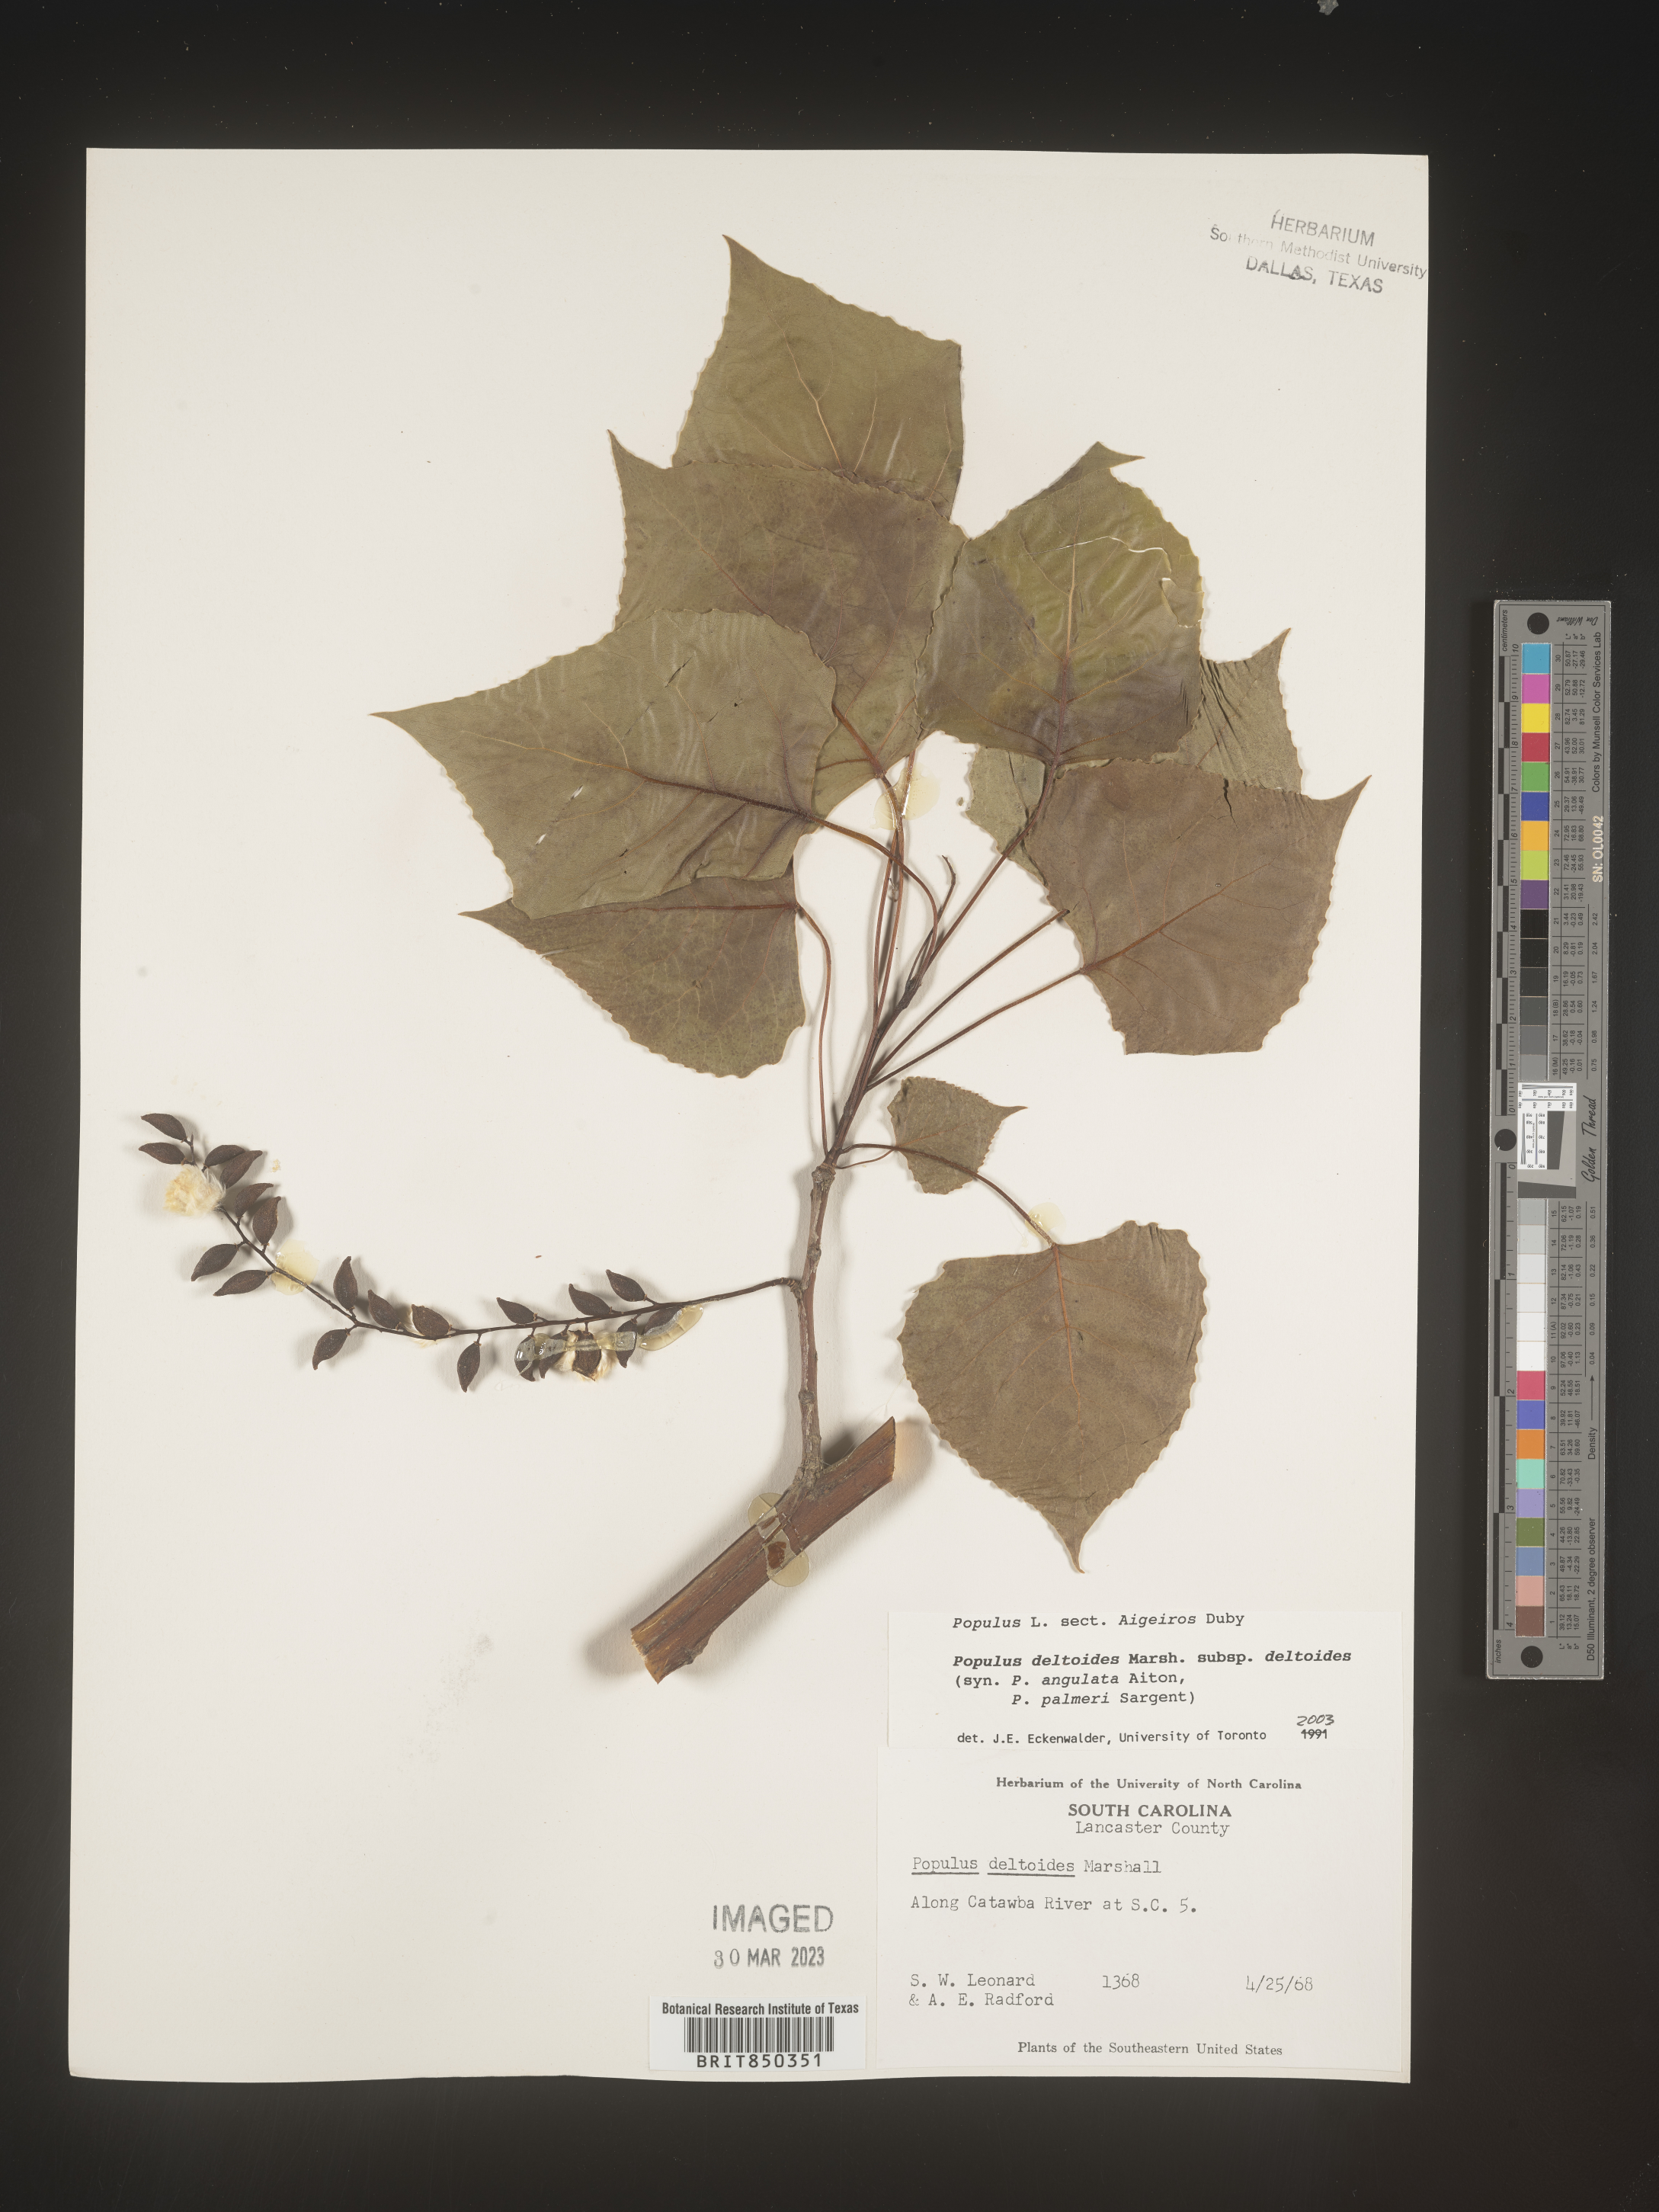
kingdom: Plantae
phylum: Tracheophyta
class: Magnoliopsida
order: Malpighiales
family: Salicaceae
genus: Populus
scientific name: Populus deltoides
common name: Eastern cottonwood
